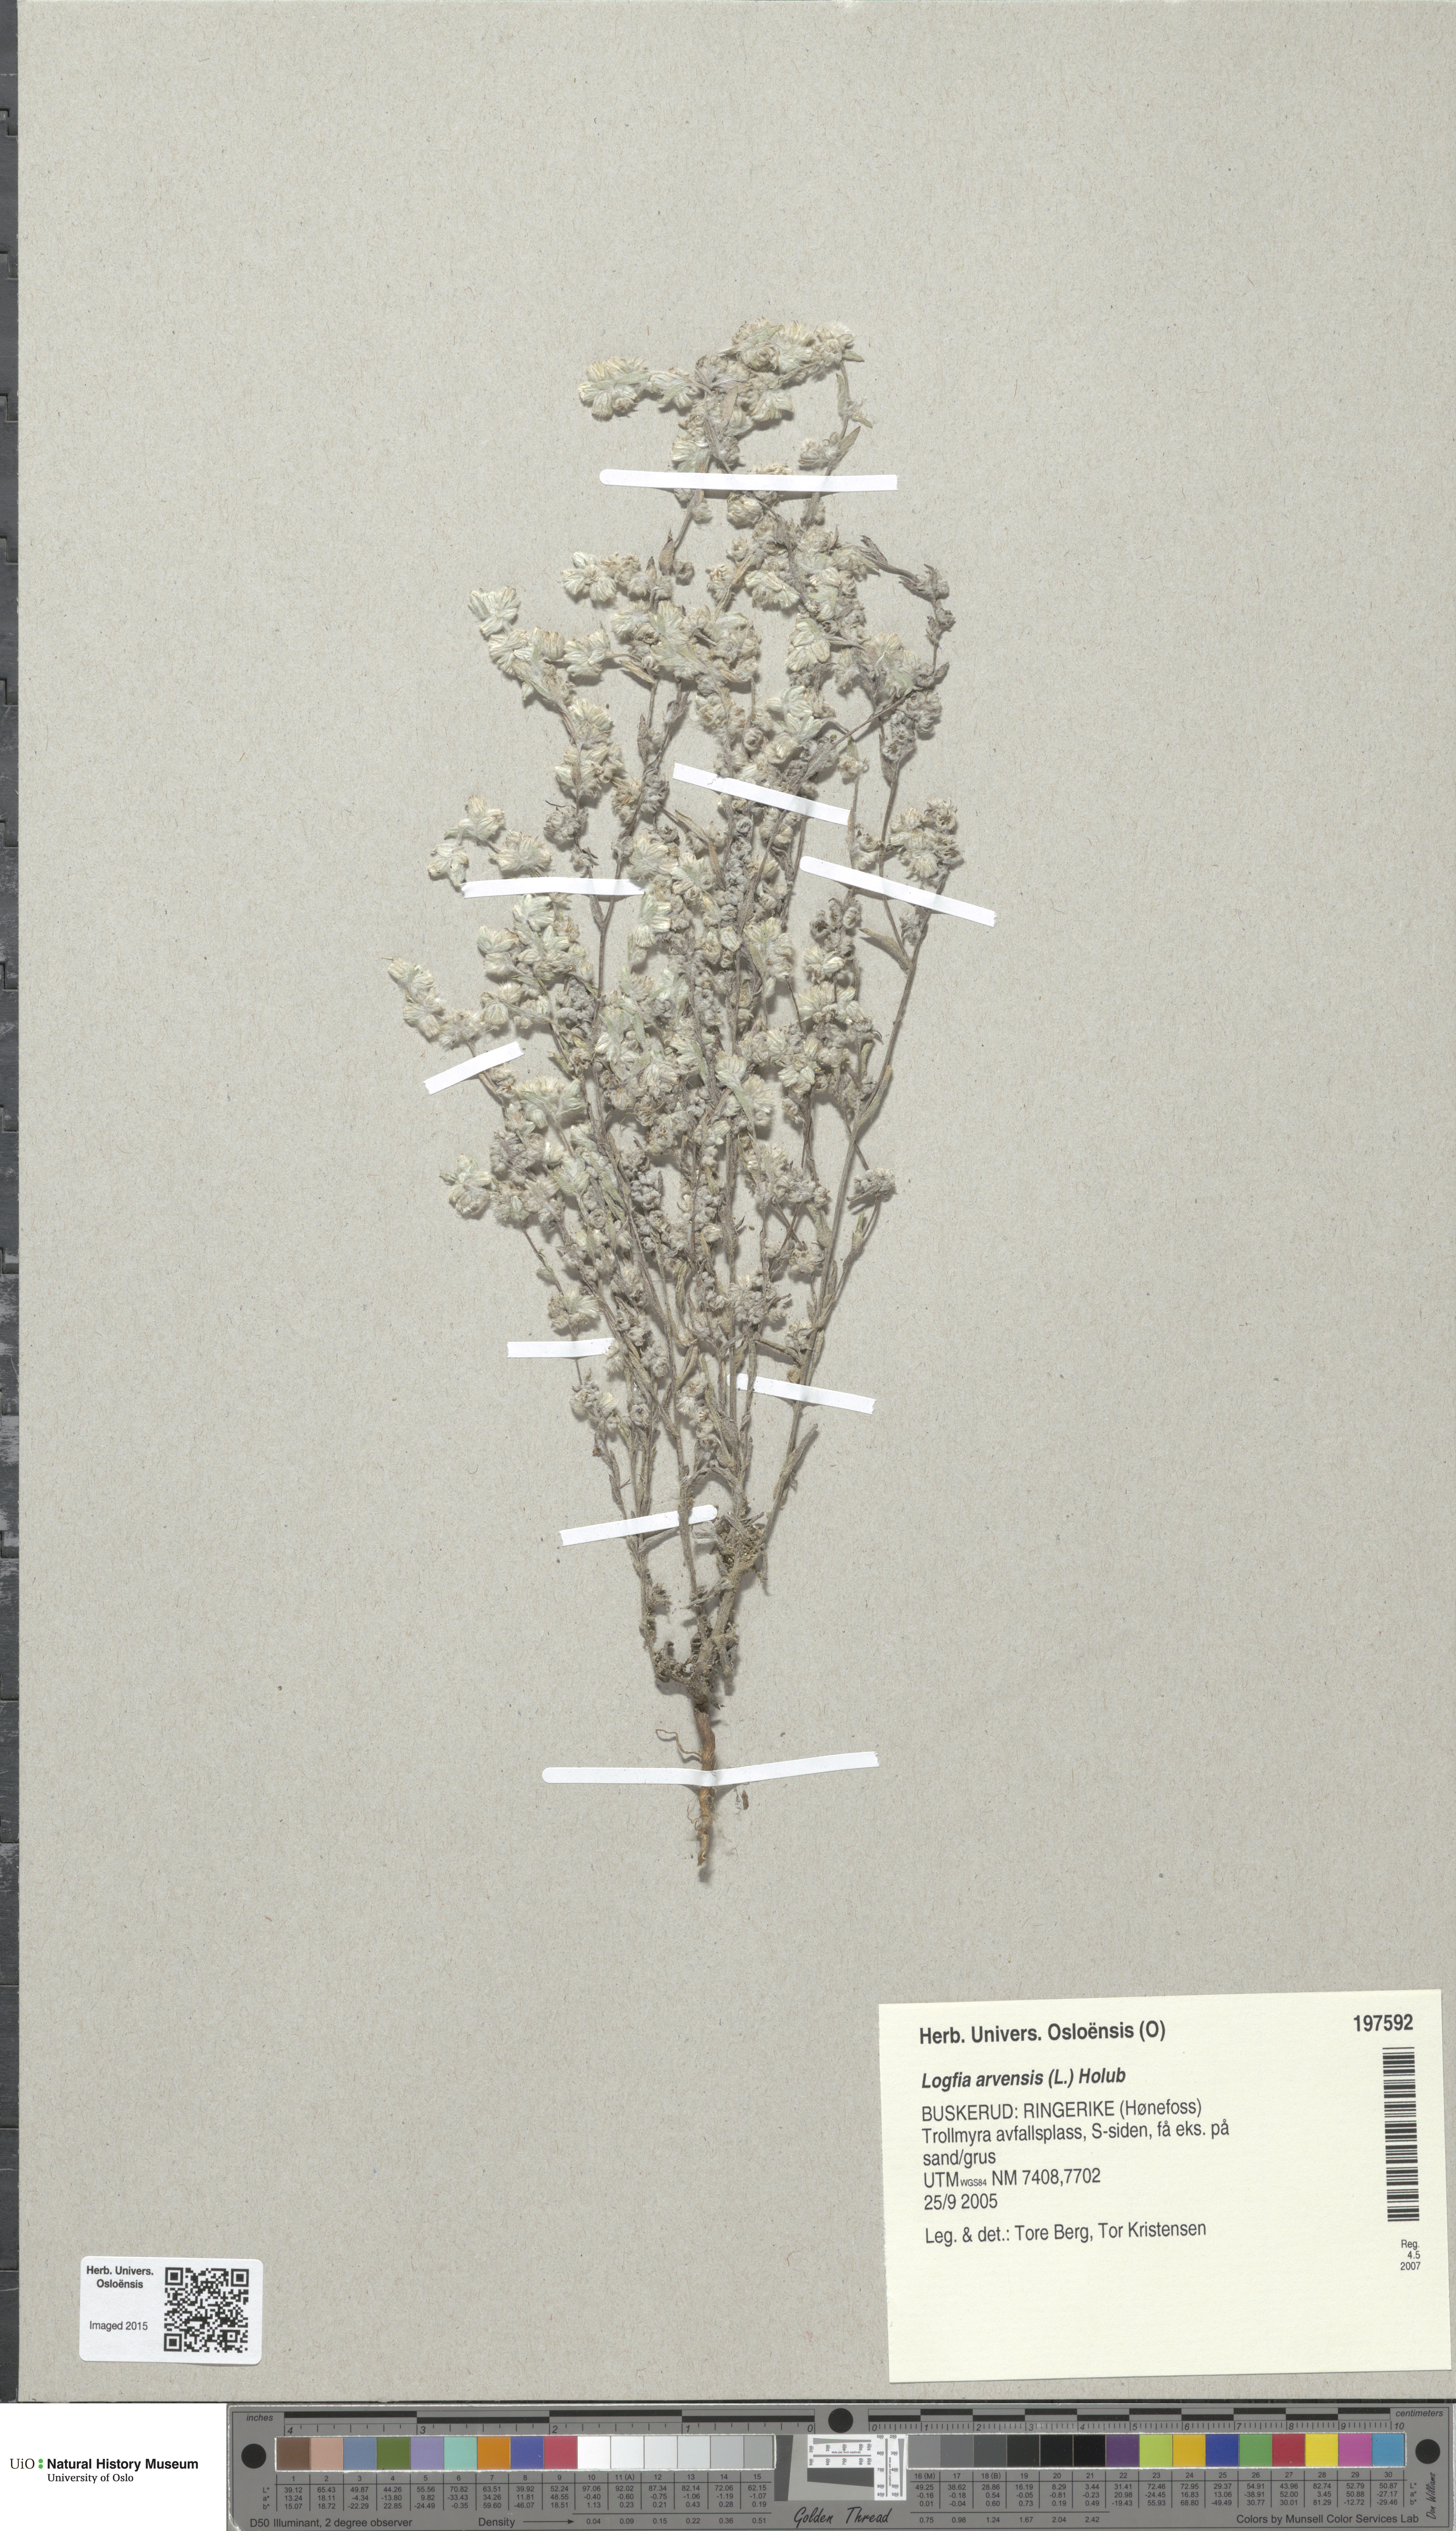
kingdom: Plantae
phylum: Tracheophyta
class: Magnoliopsida
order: Asterales
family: Asteraceae
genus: Filago
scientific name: Filago arvensis
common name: Field cudweed
